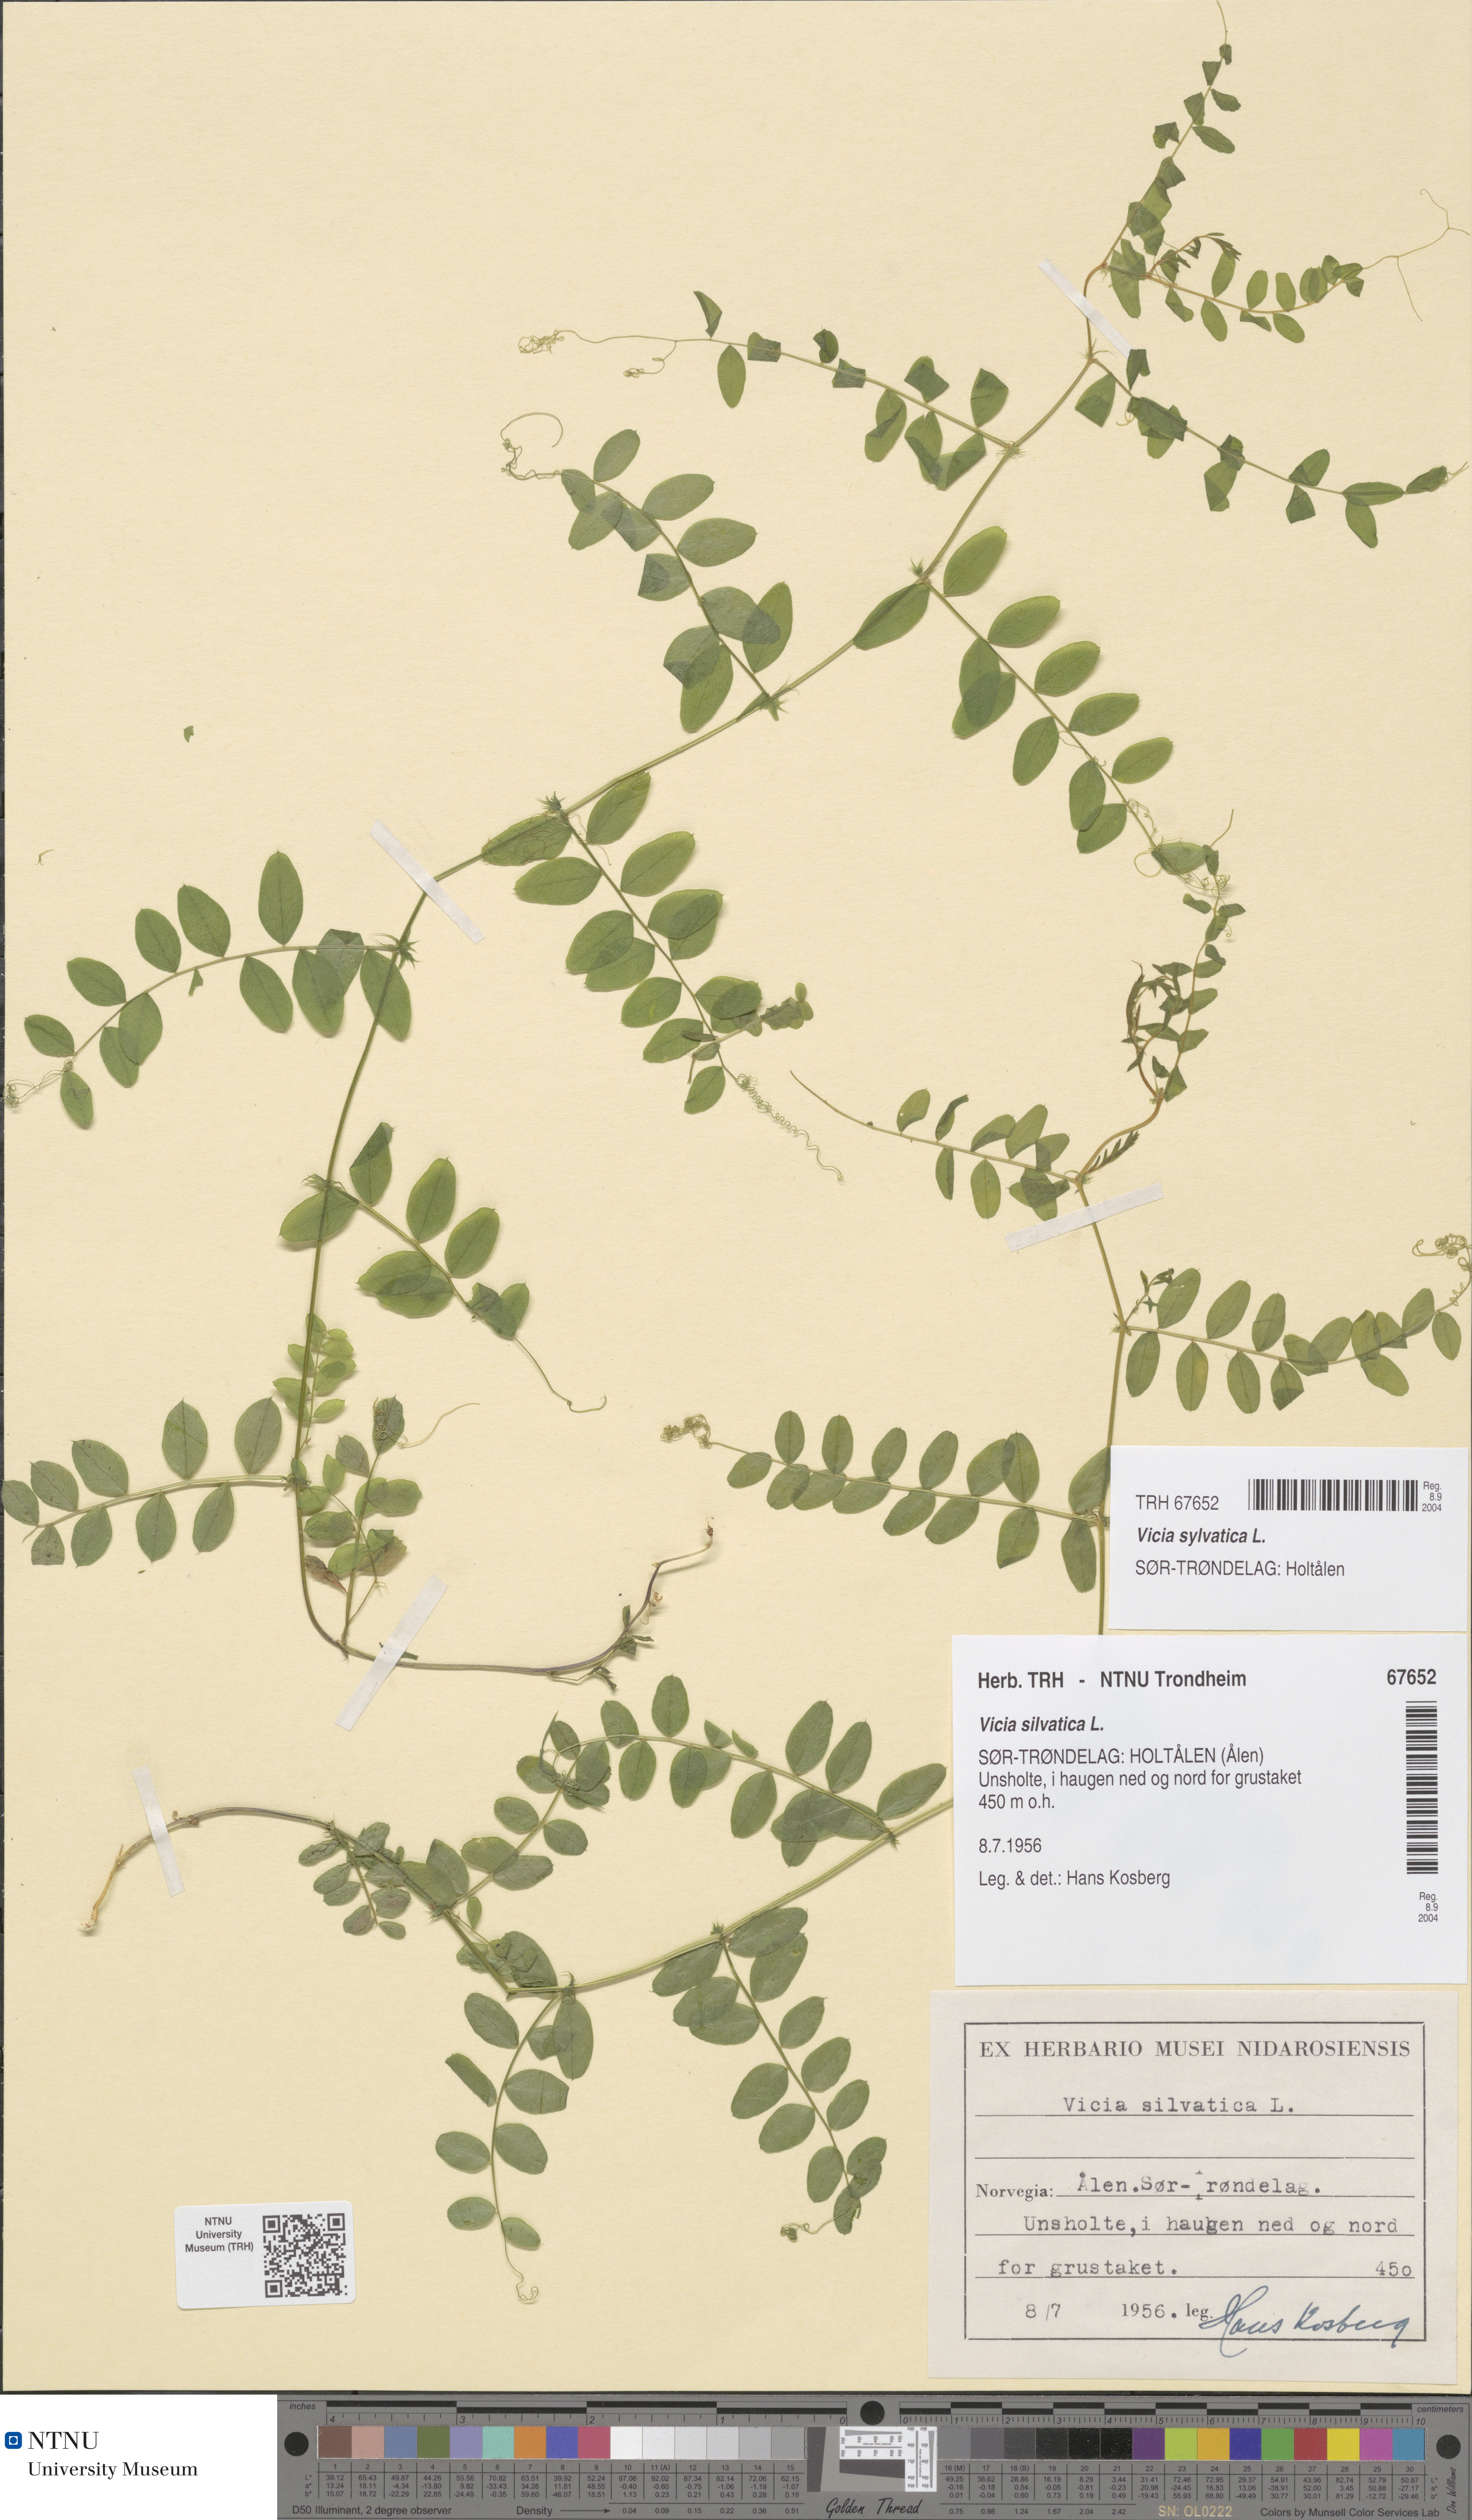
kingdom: Plantae
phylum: Tracheophyta
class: Magnoliopsida
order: Fabales
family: Fabaceae
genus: Vicia
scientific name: Vicia sylvatica
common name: Wood vetch
